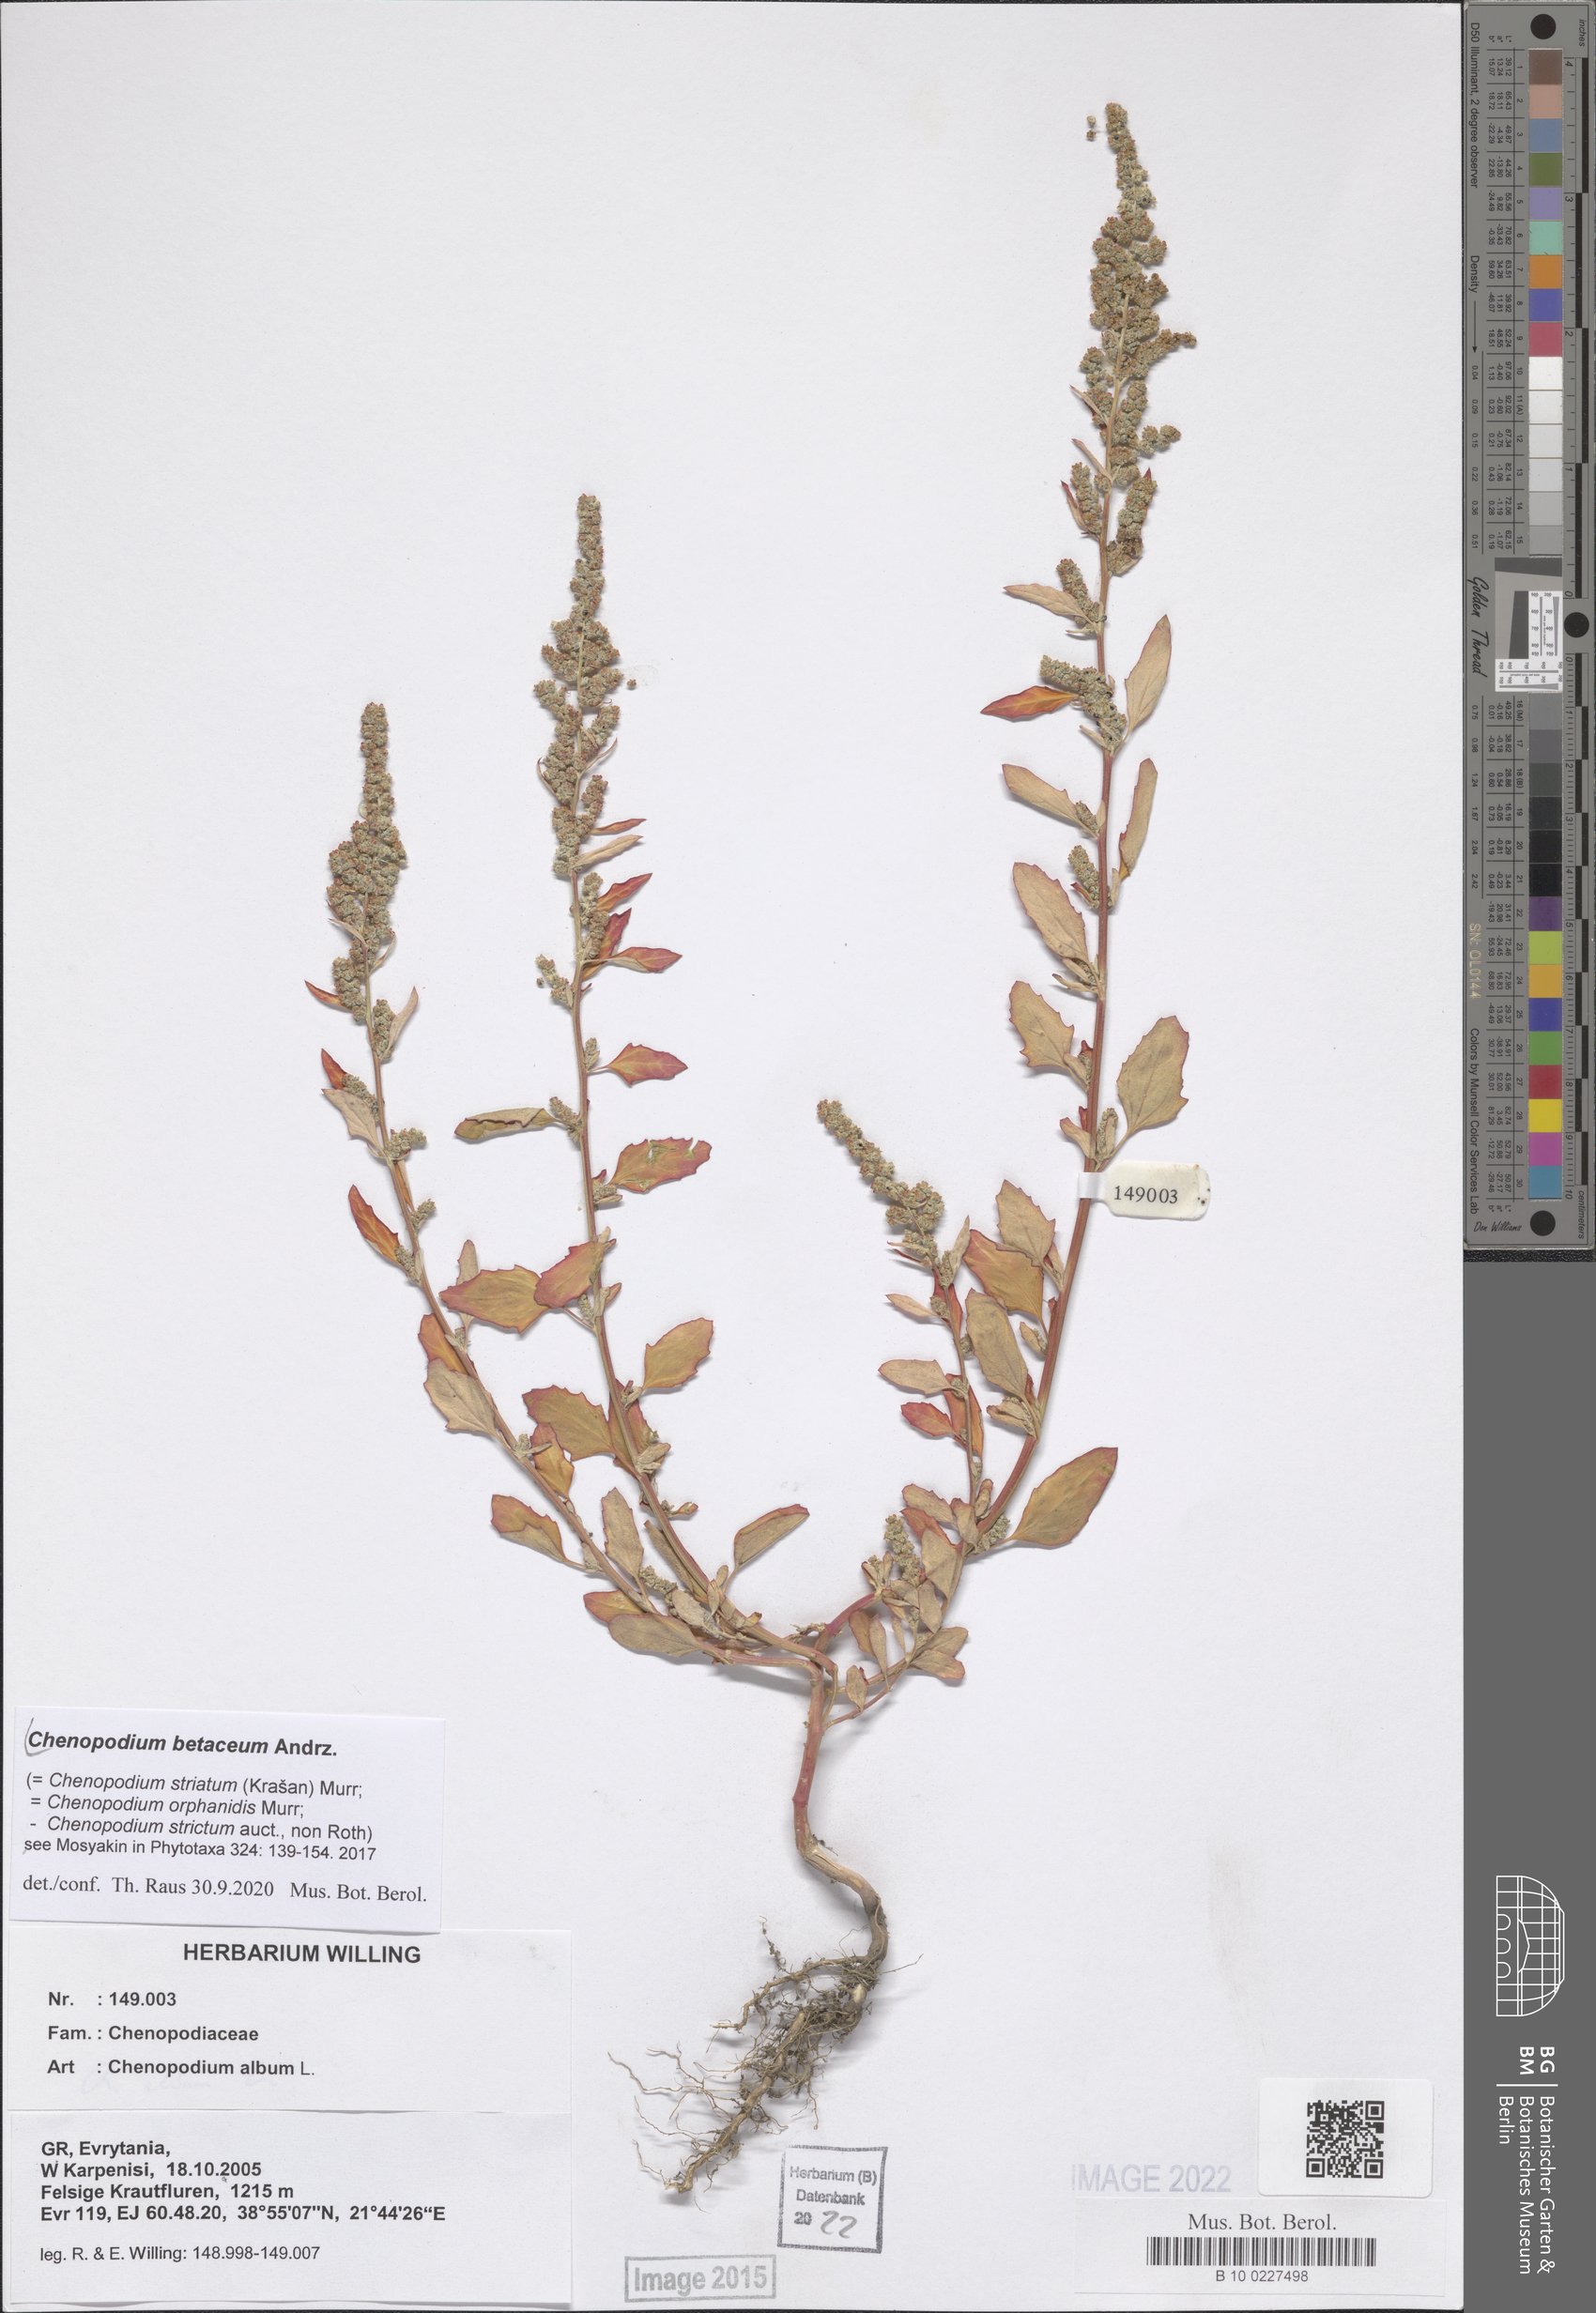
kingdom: Plantae
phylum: Tracheophyta
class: Magnoliopsida
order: Caryophyllales
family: Amaranthaceae
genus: Chenopodium
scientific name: Chenopodium betaceum
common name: Striped goosefoot
